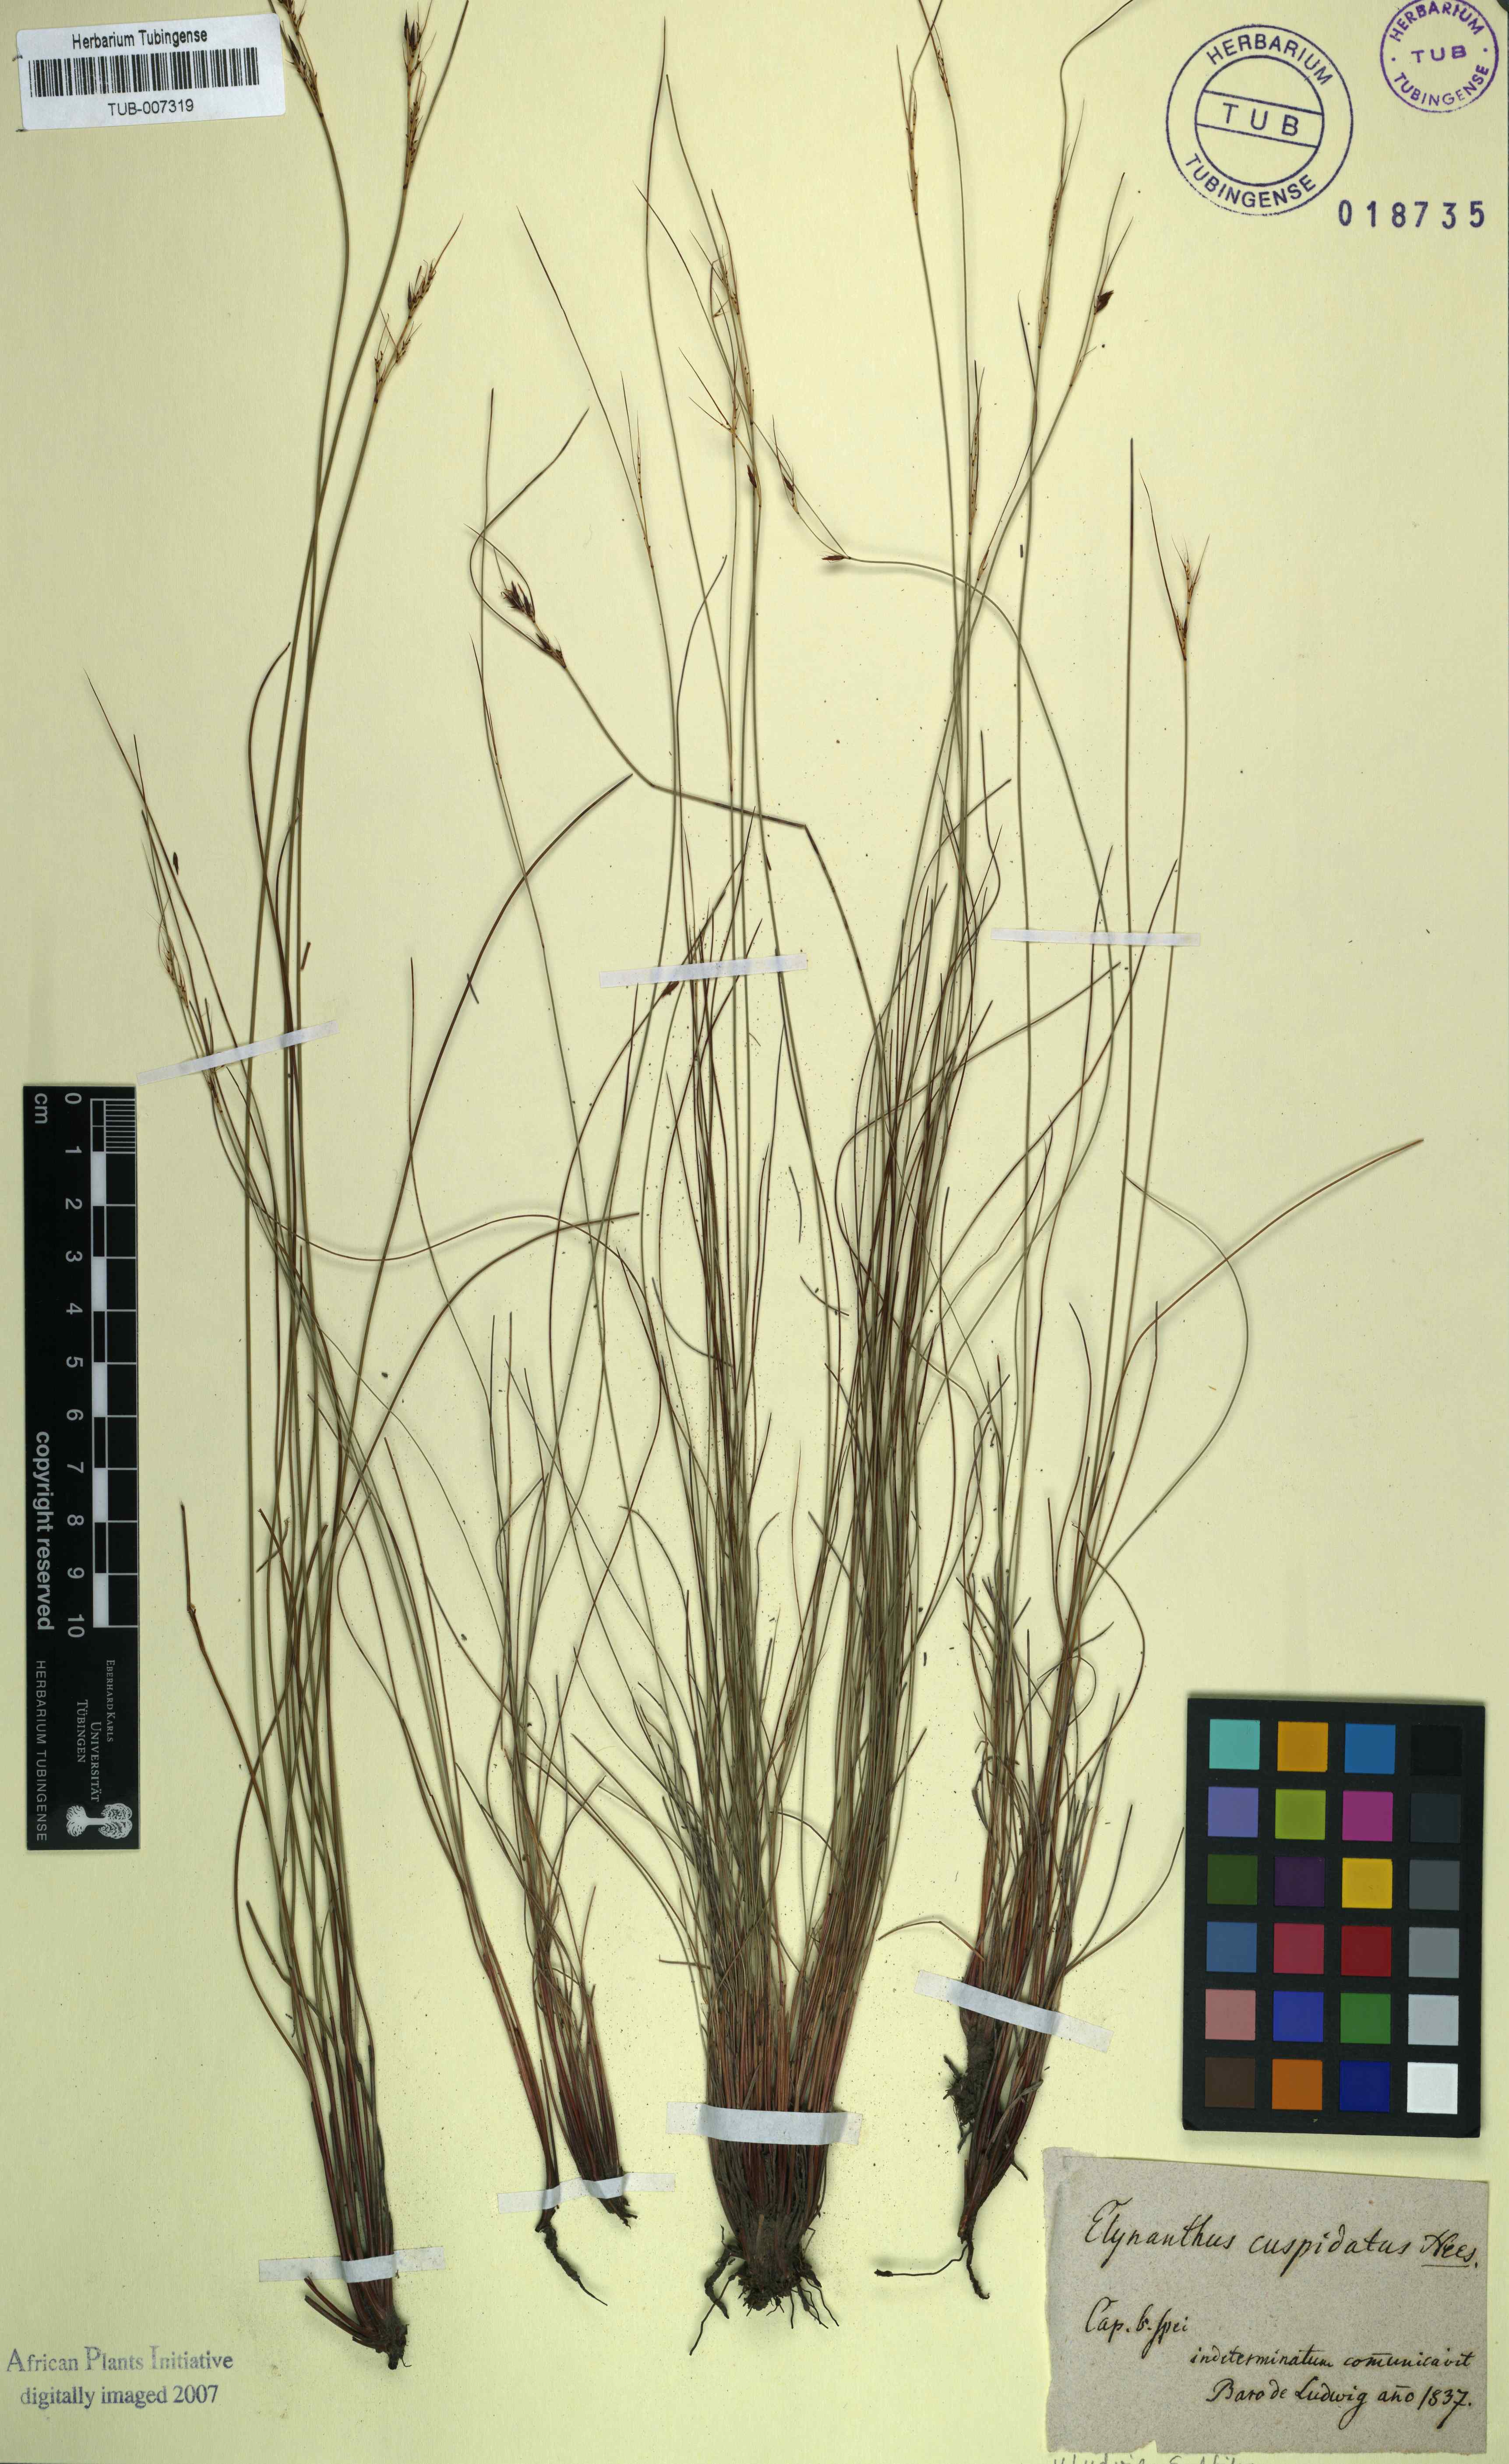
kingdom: Plantae
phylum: Tracheophyta
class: Liliopsida
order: Poales
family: Cyperaceae
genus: Schoenus
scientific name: Schoenus cuspidatus
